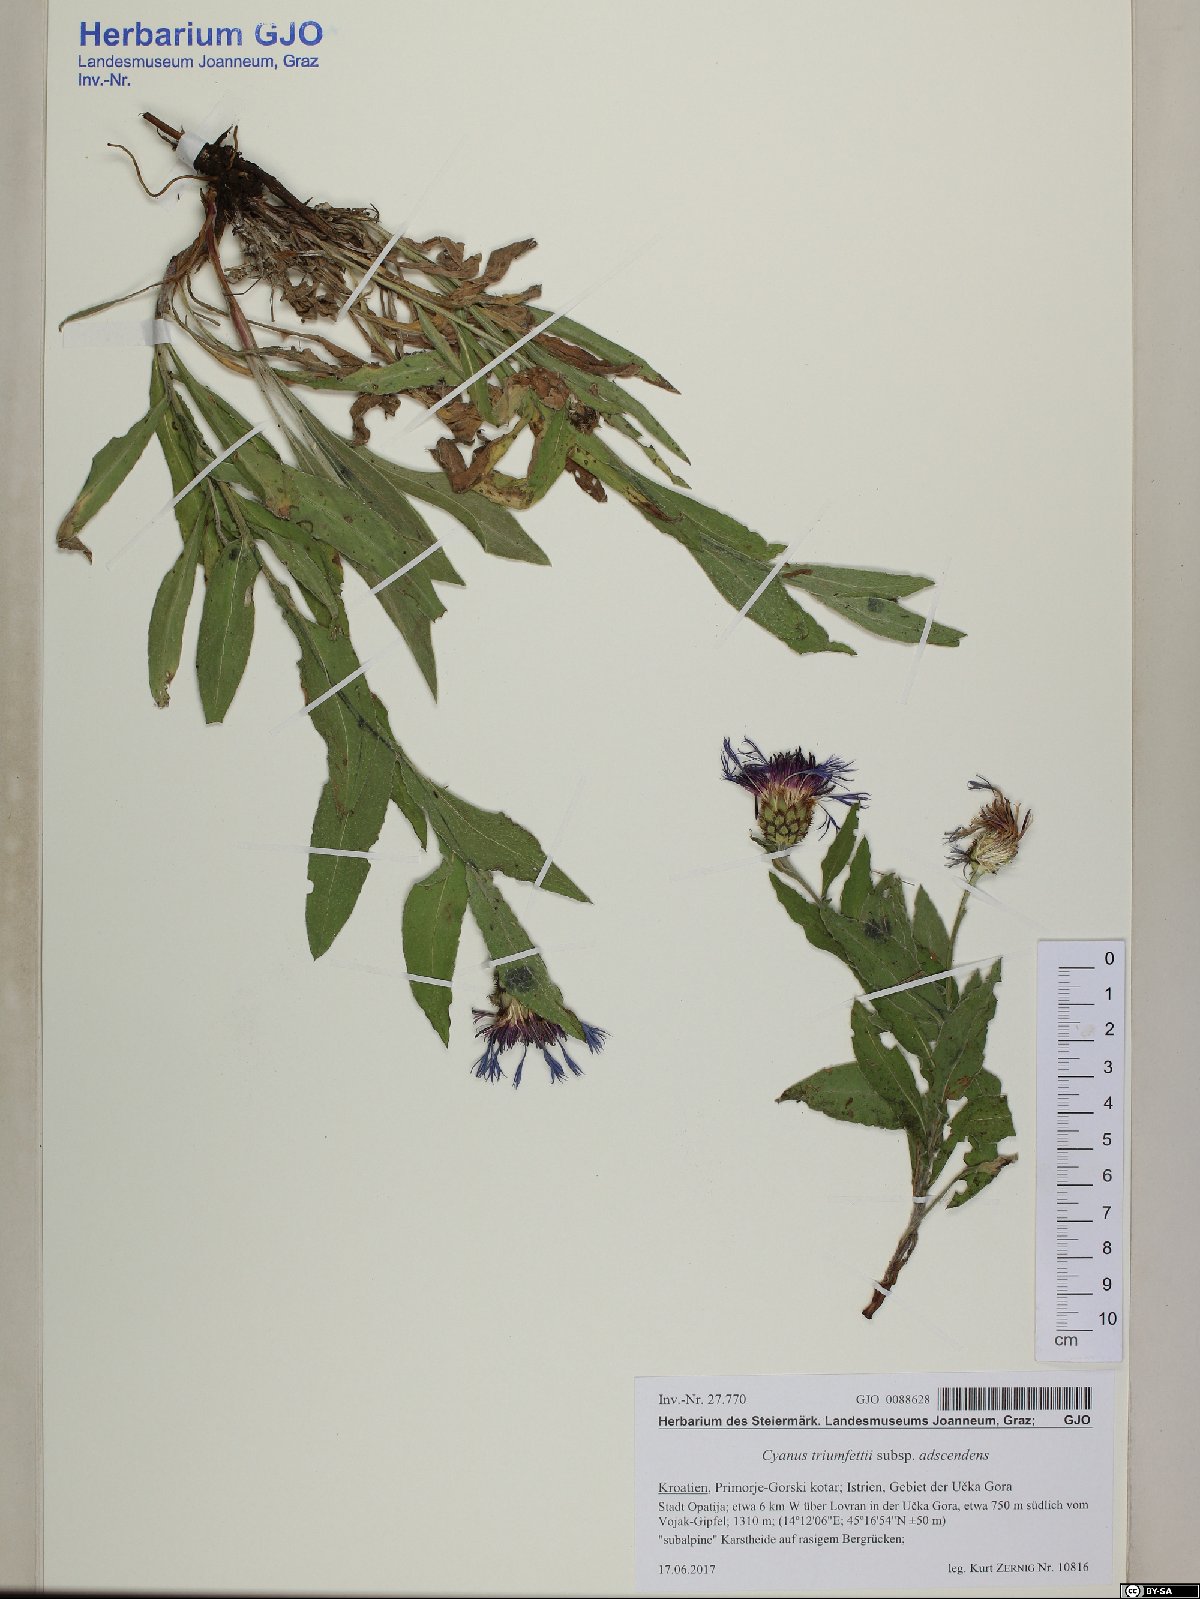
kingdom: Plantae
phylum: Tracheophyta
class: Magnoliopsida
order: Asterales
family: Asteraceae
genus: Centaurea
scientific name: Centaurea triumfettii
